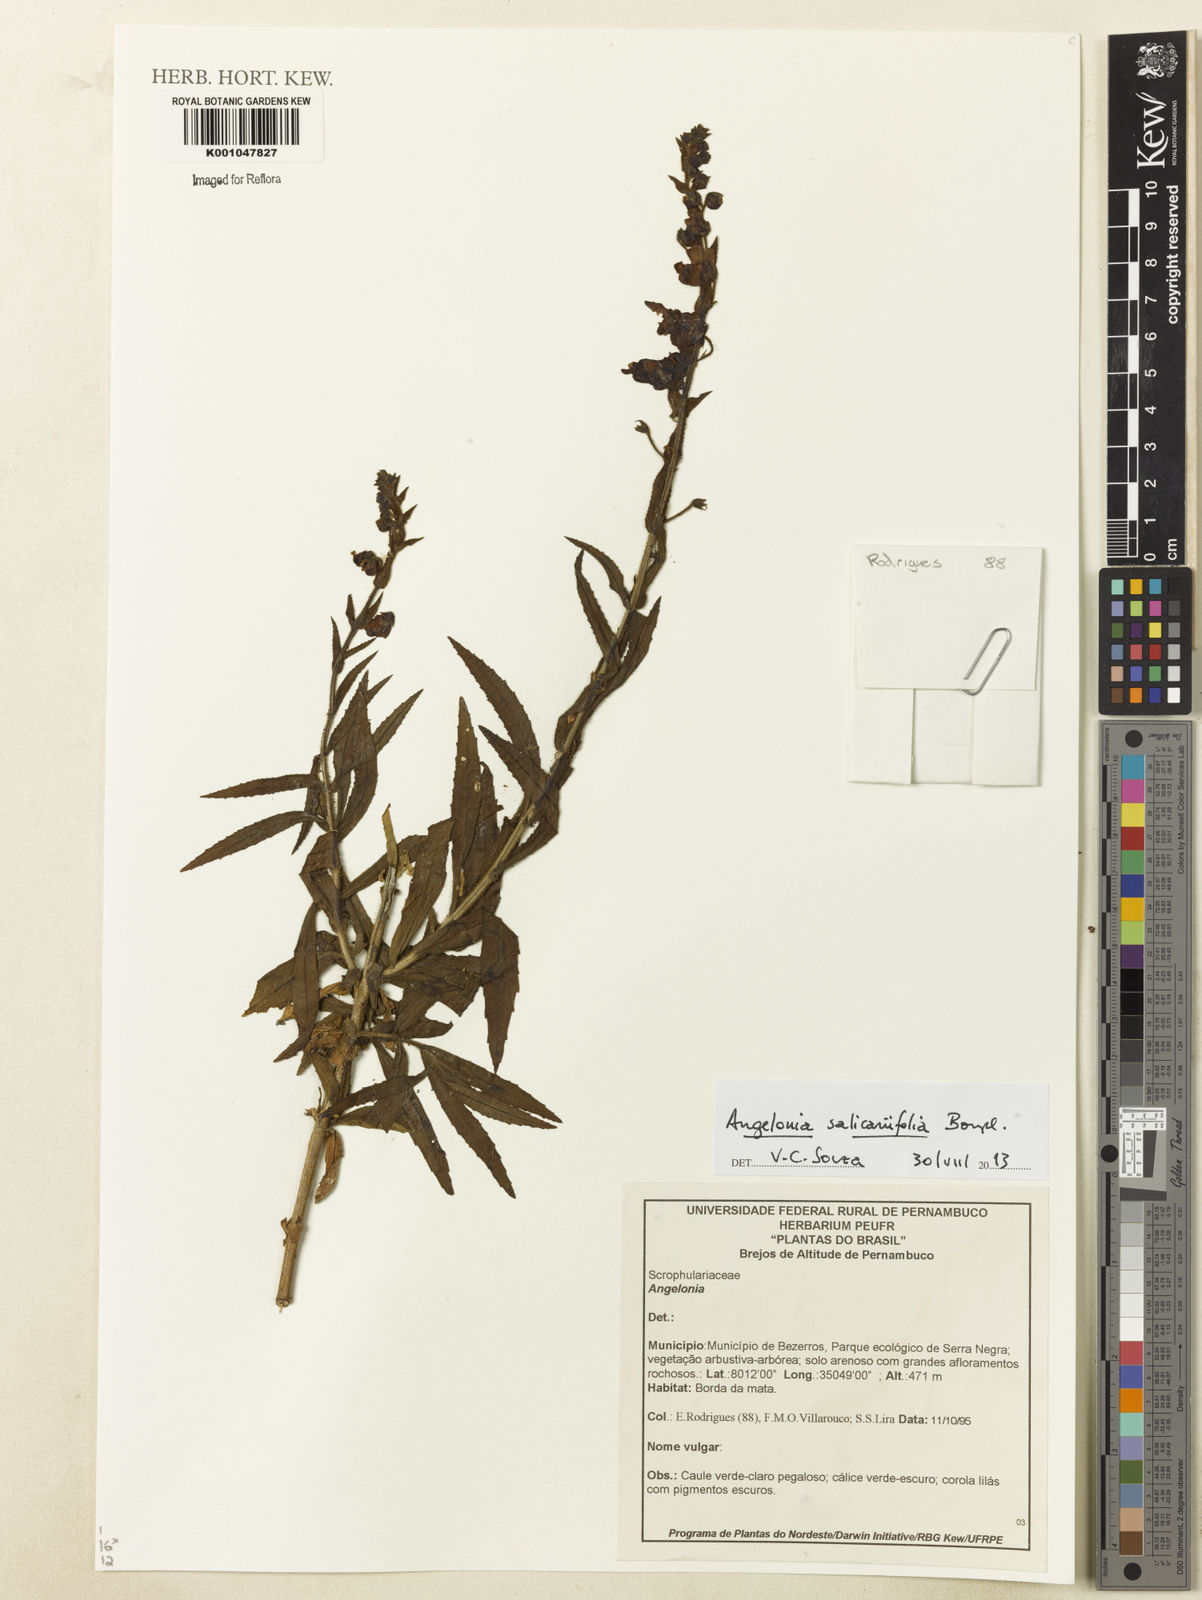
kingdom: Plantae
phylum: Tracheophyta
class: Magnoliopsida
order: Lamiales
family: Plantaginaceae
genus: Angelonia
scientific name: Angelonia salicariifolia
